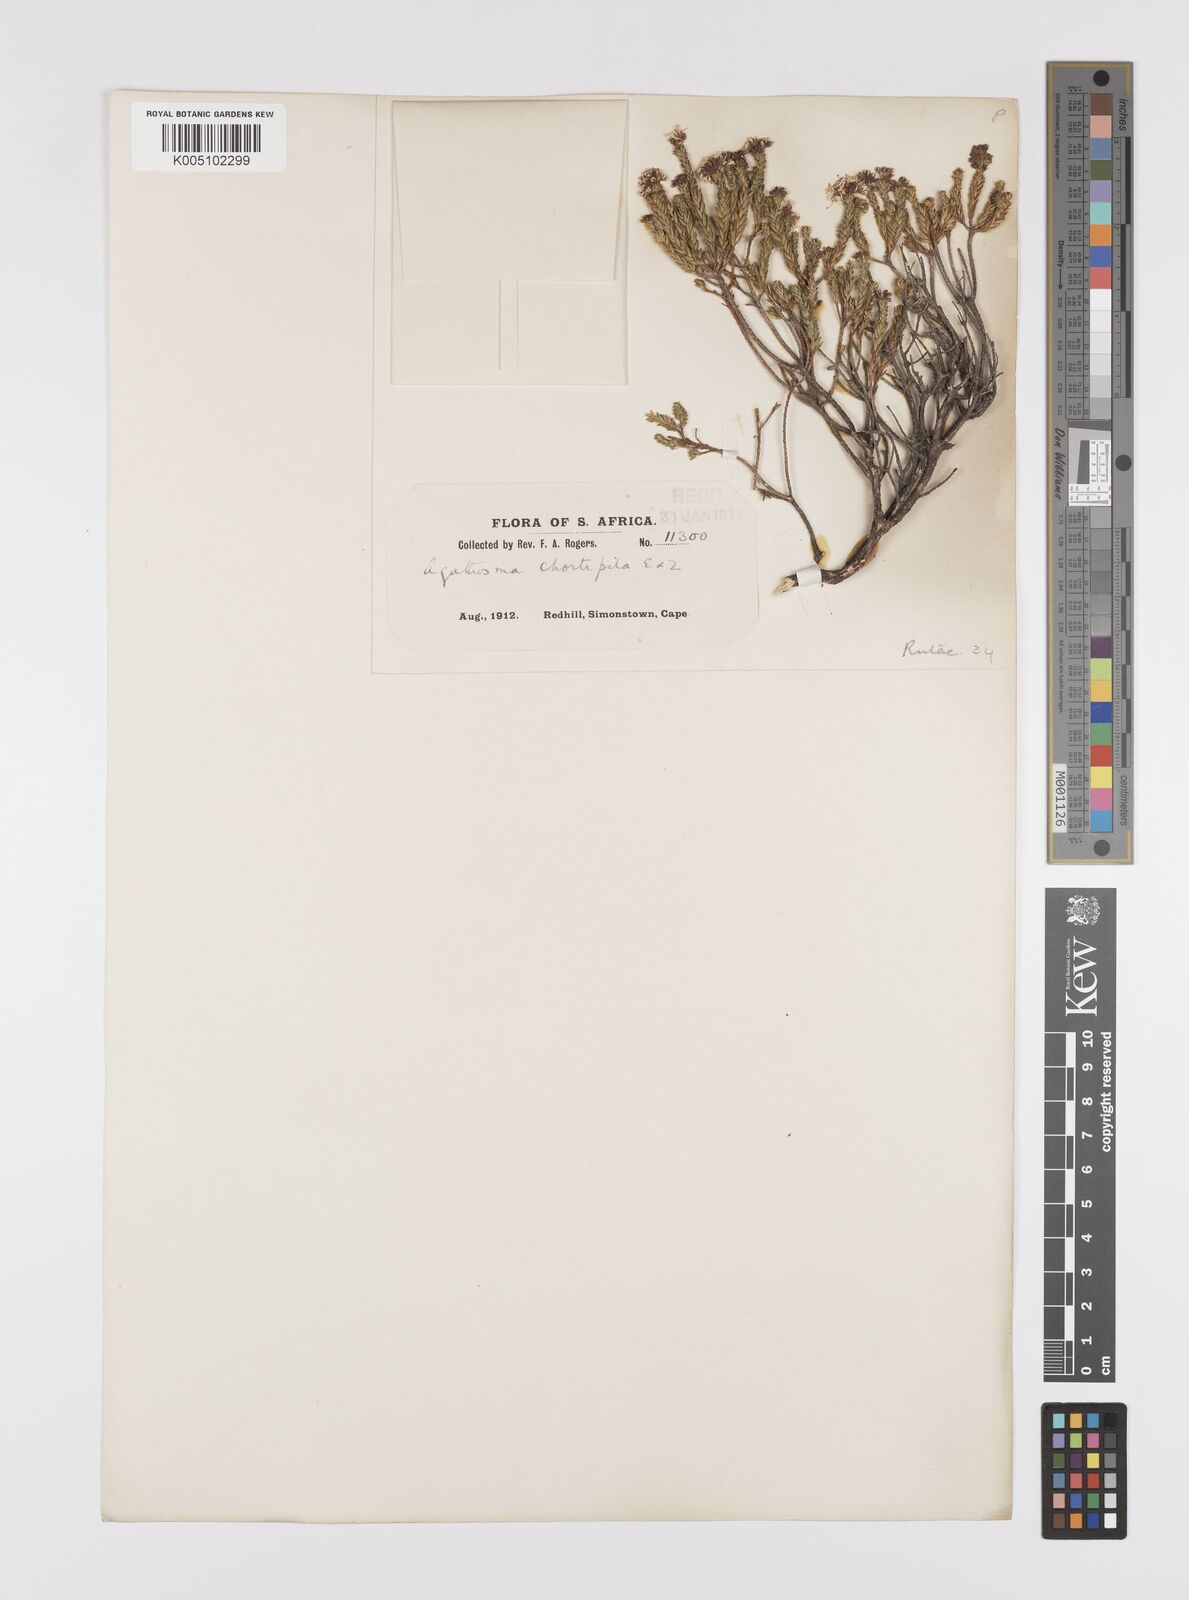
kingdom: Plantae
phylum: Tracheophyta
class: Magnoliopsida
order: Sapindales
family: Rutaceae
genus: Agathosma
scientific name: Agathosma capensis
